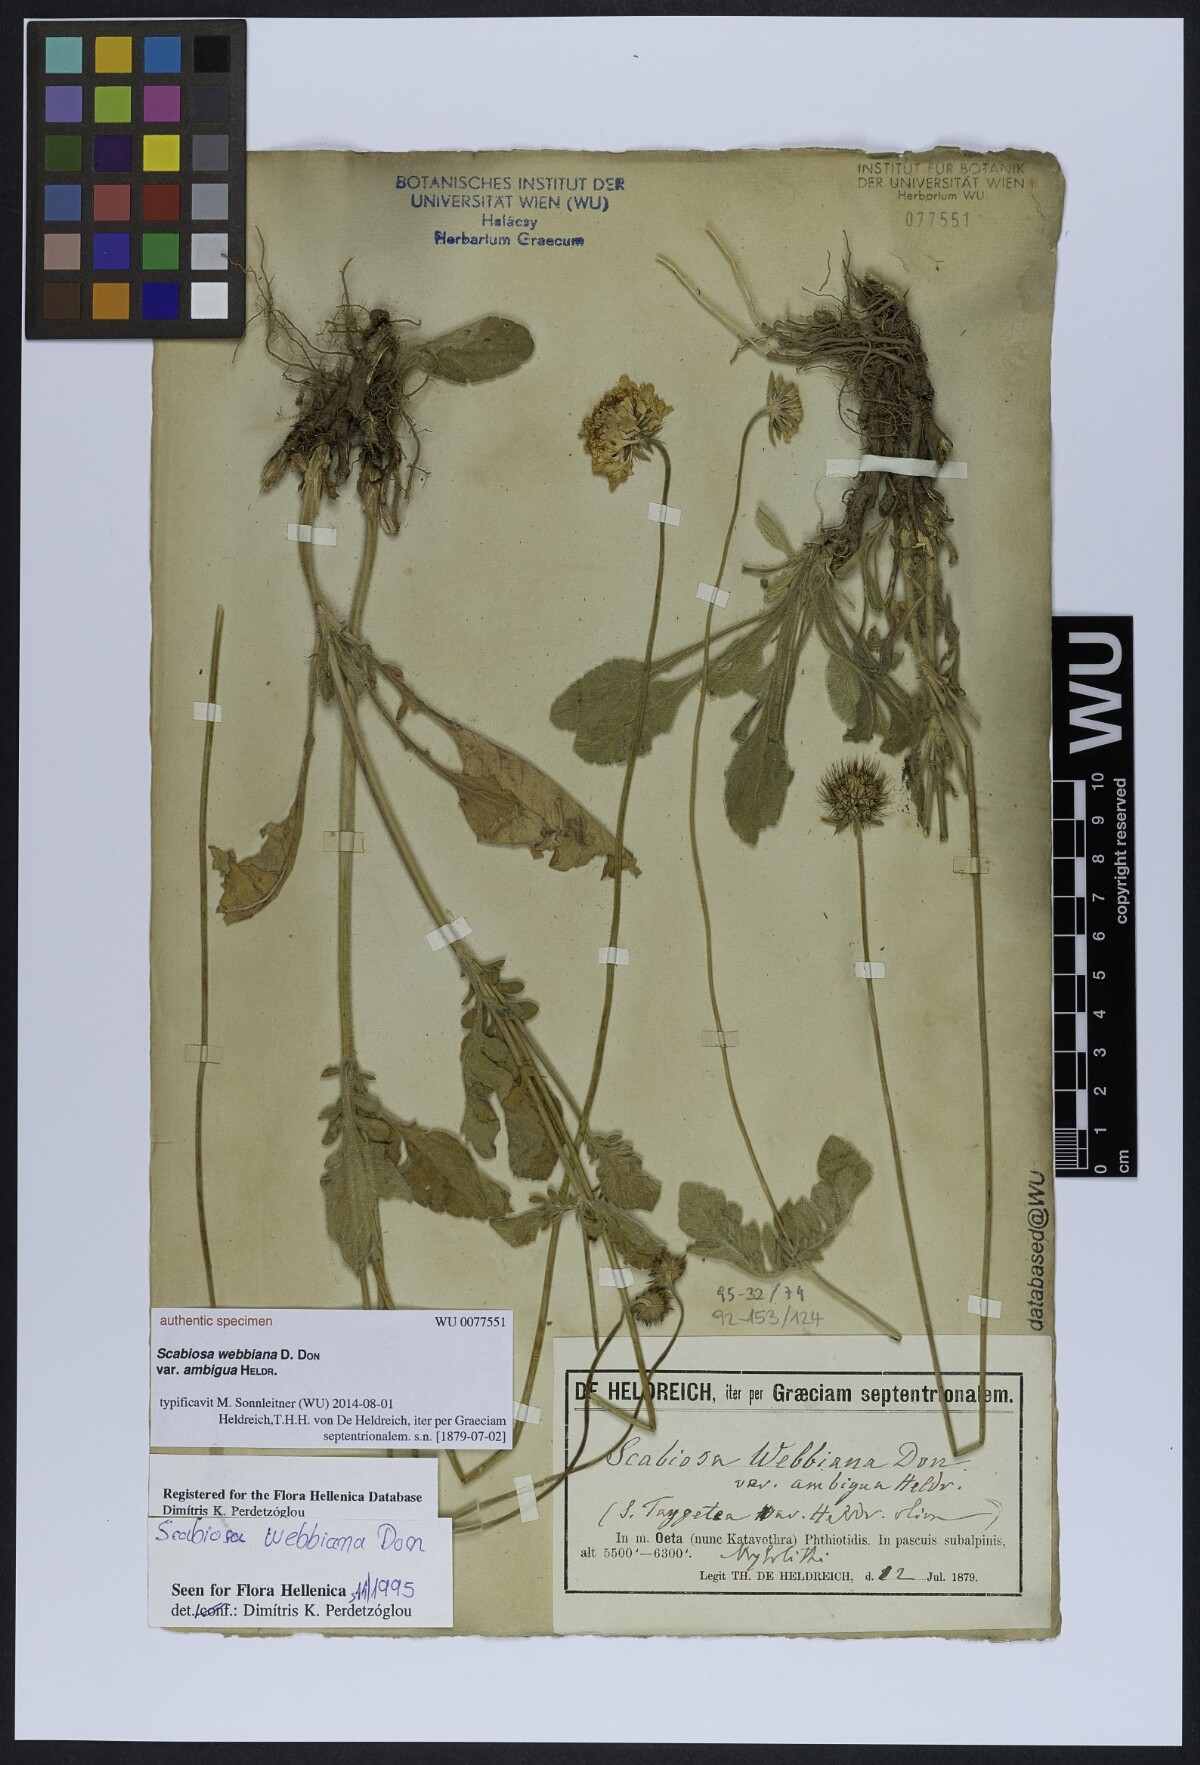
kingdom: Plantae
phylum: Tracheophyta
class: Magnoliopsida
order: Dipsacales
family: Caprifoliaceae
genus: Scabiosa
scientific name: Scabiosa webbiana
